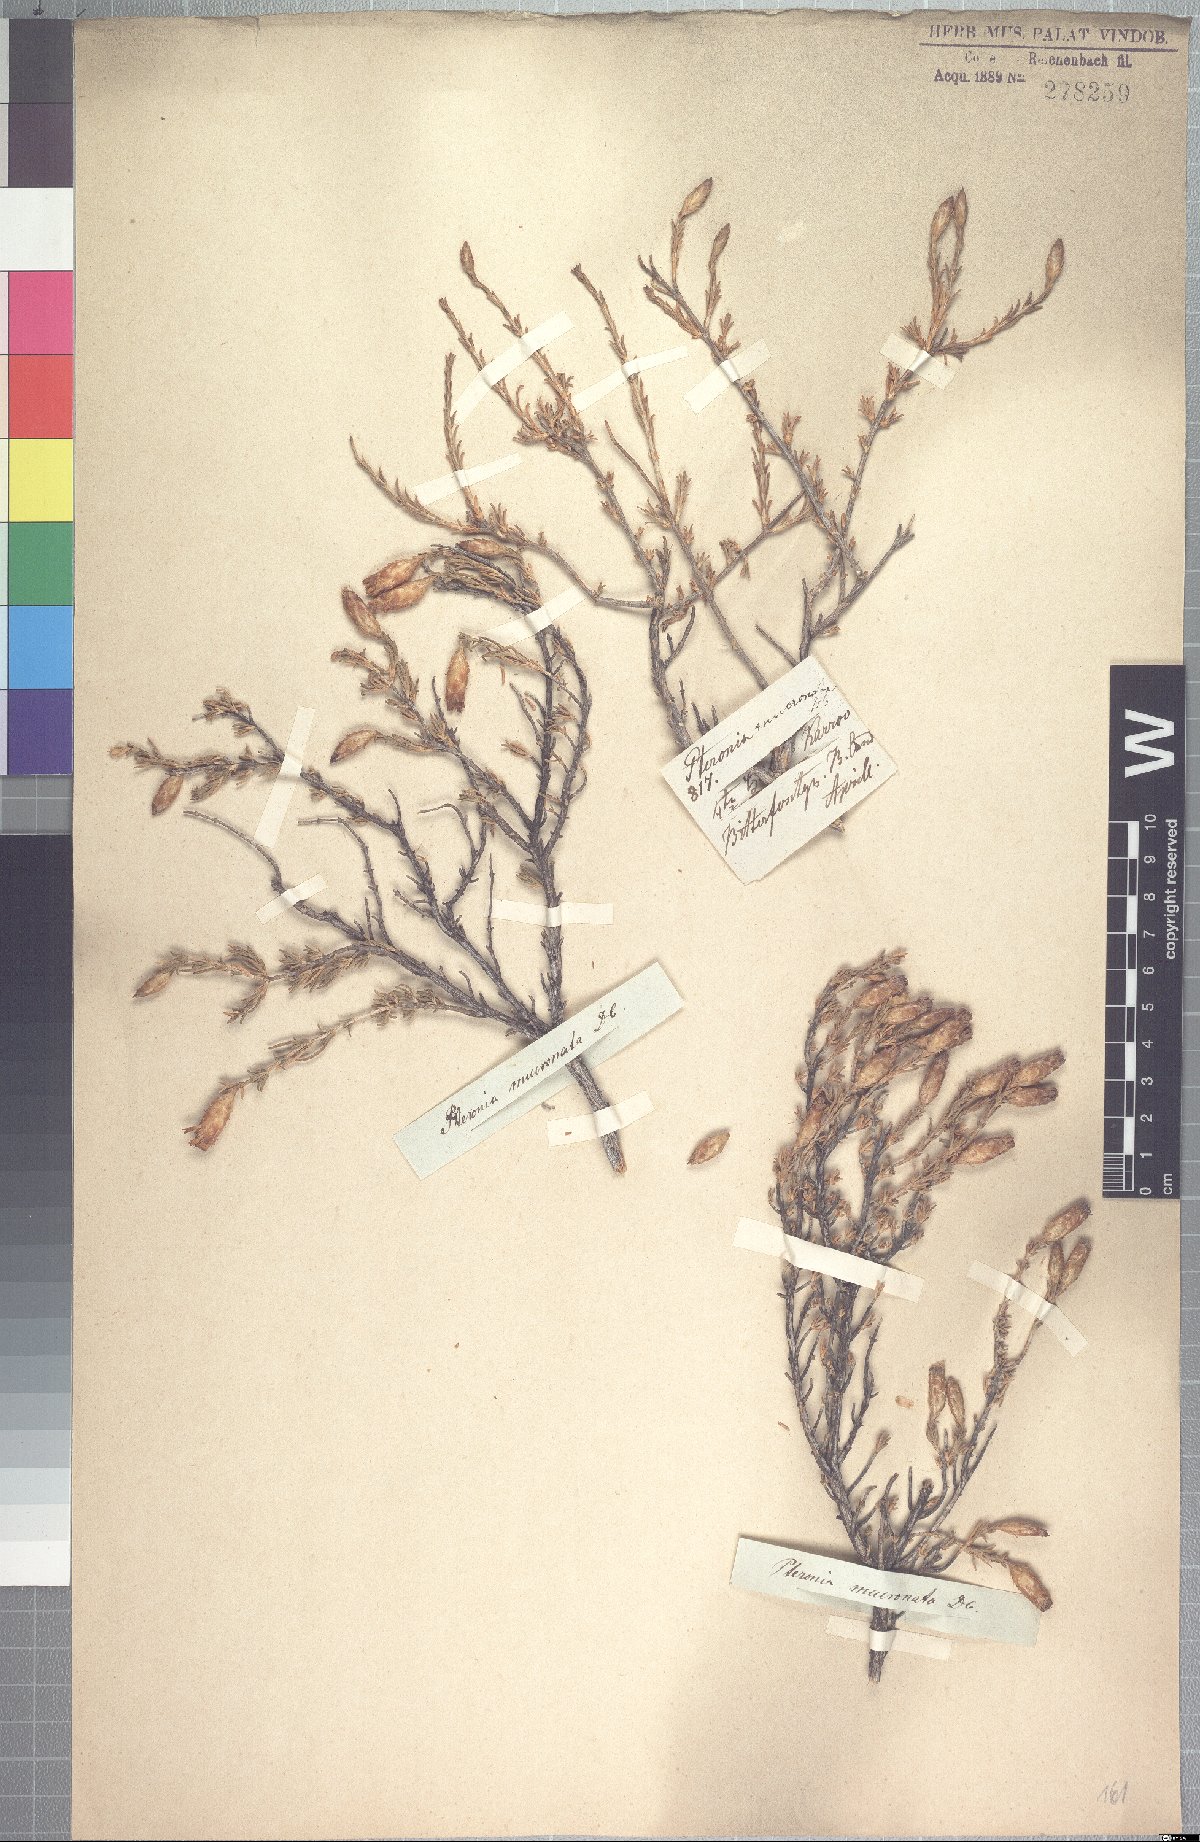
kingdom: Plantae
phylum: Tracheophyta
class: Magnoliopsida
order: Asterales
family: Asteraceae
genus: Pteronia
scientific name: Pteronia mucronata
